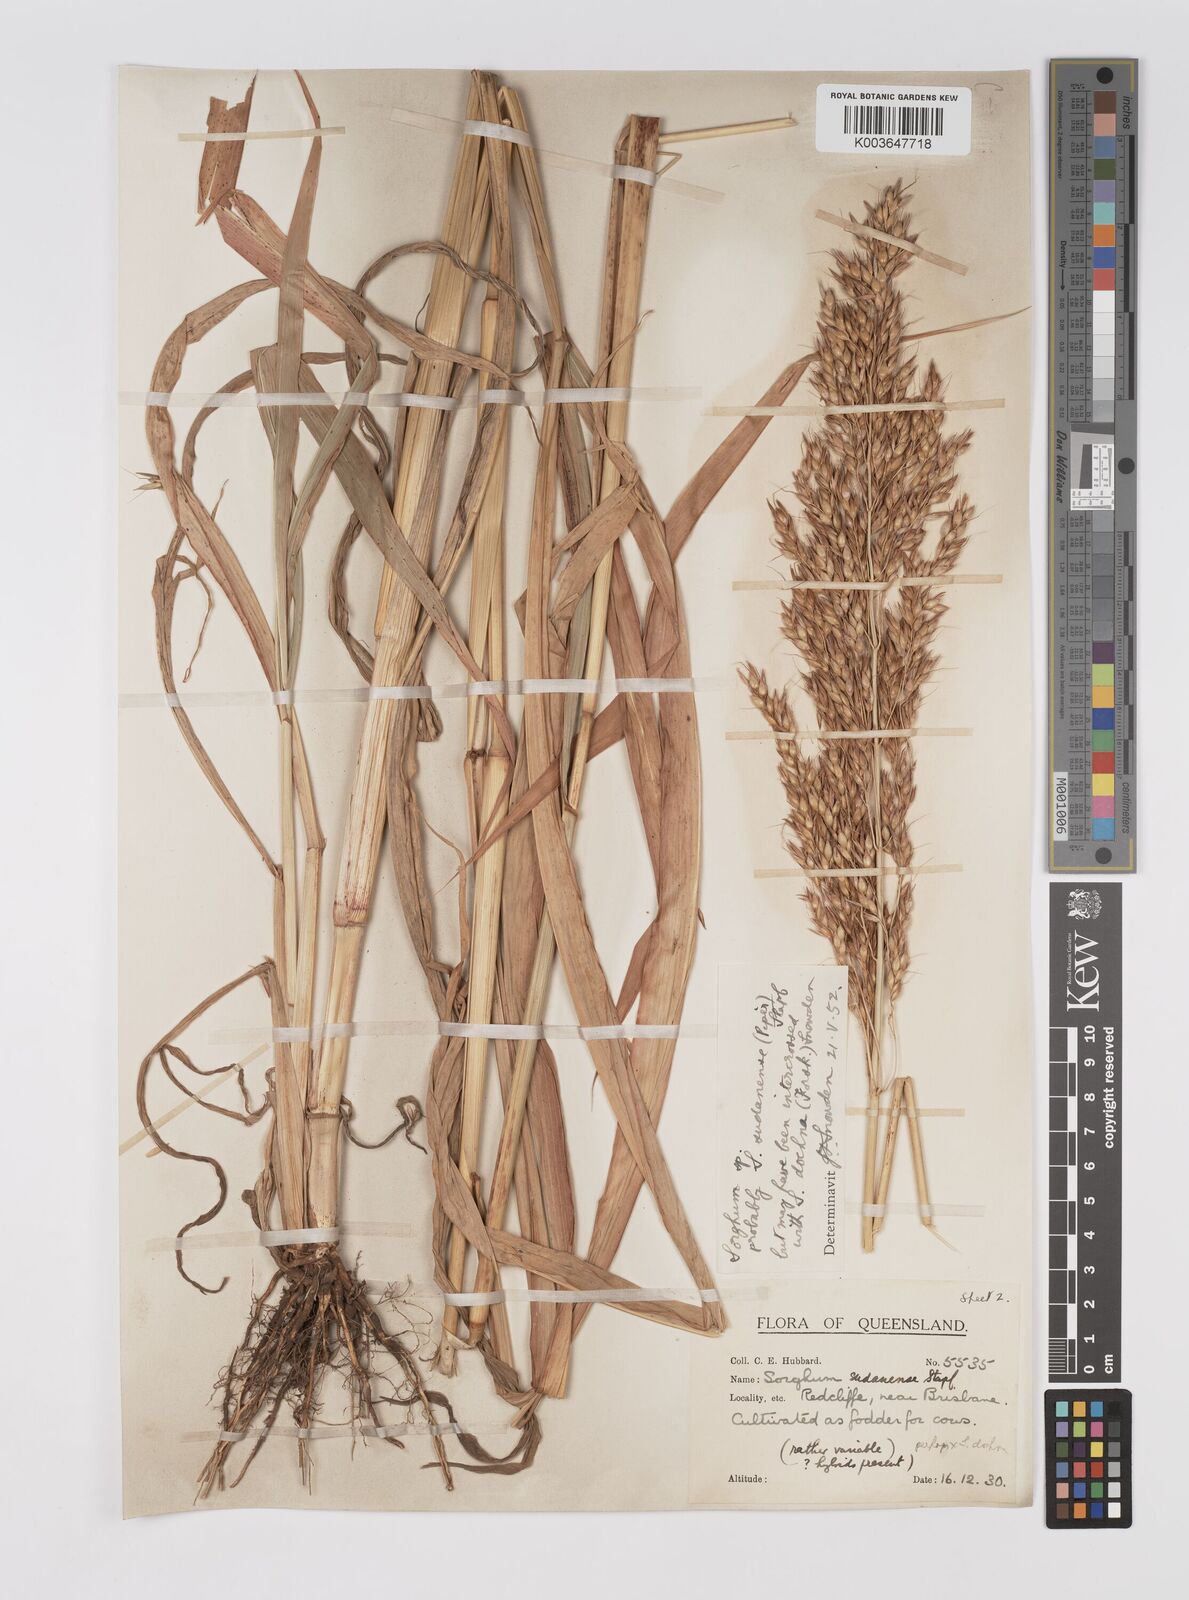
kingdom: Plantae
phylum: Tracheophyta
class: Liliopsida
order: Poales
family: Poaceae
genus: Sorghum
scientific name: Sorghum drummondii
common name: Sudangrass
